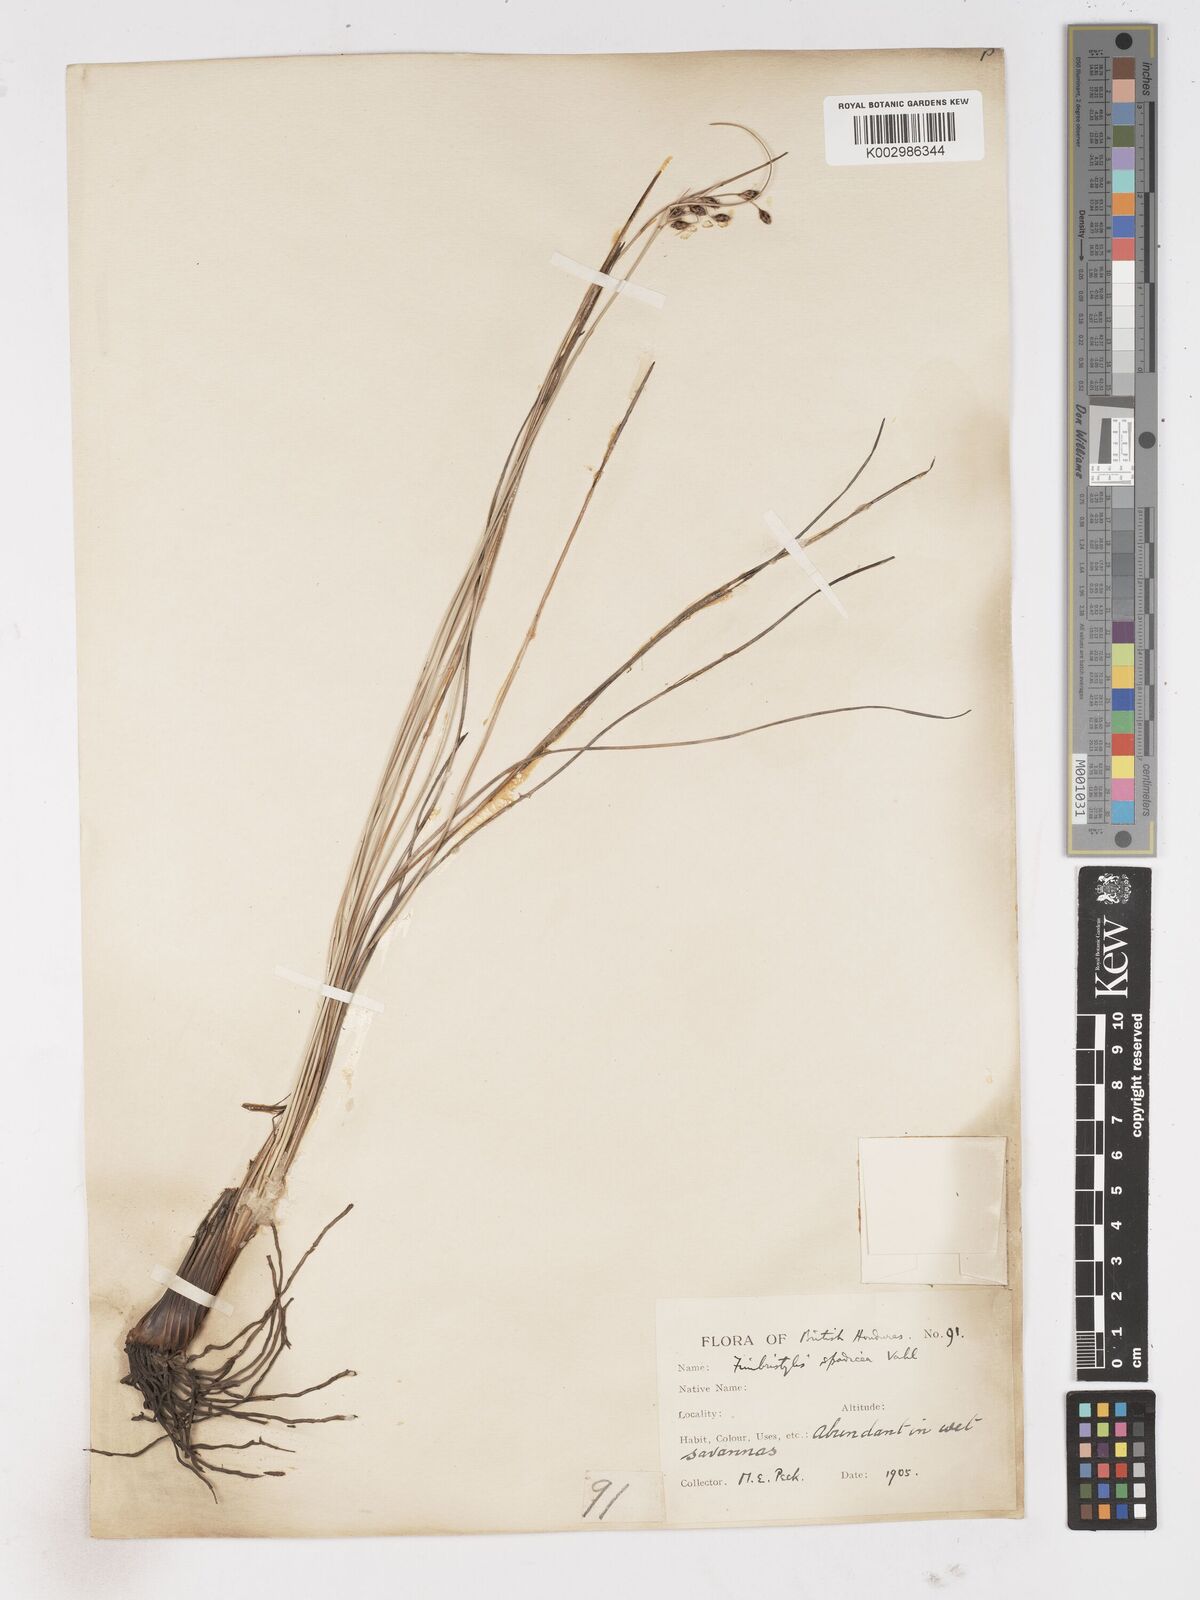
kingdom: Plantae
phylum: Tracheophyta
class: Liliopsida
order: Poales
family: Cyperaceae
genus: Fimbristylis
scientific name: Fimbristylis spadicea
